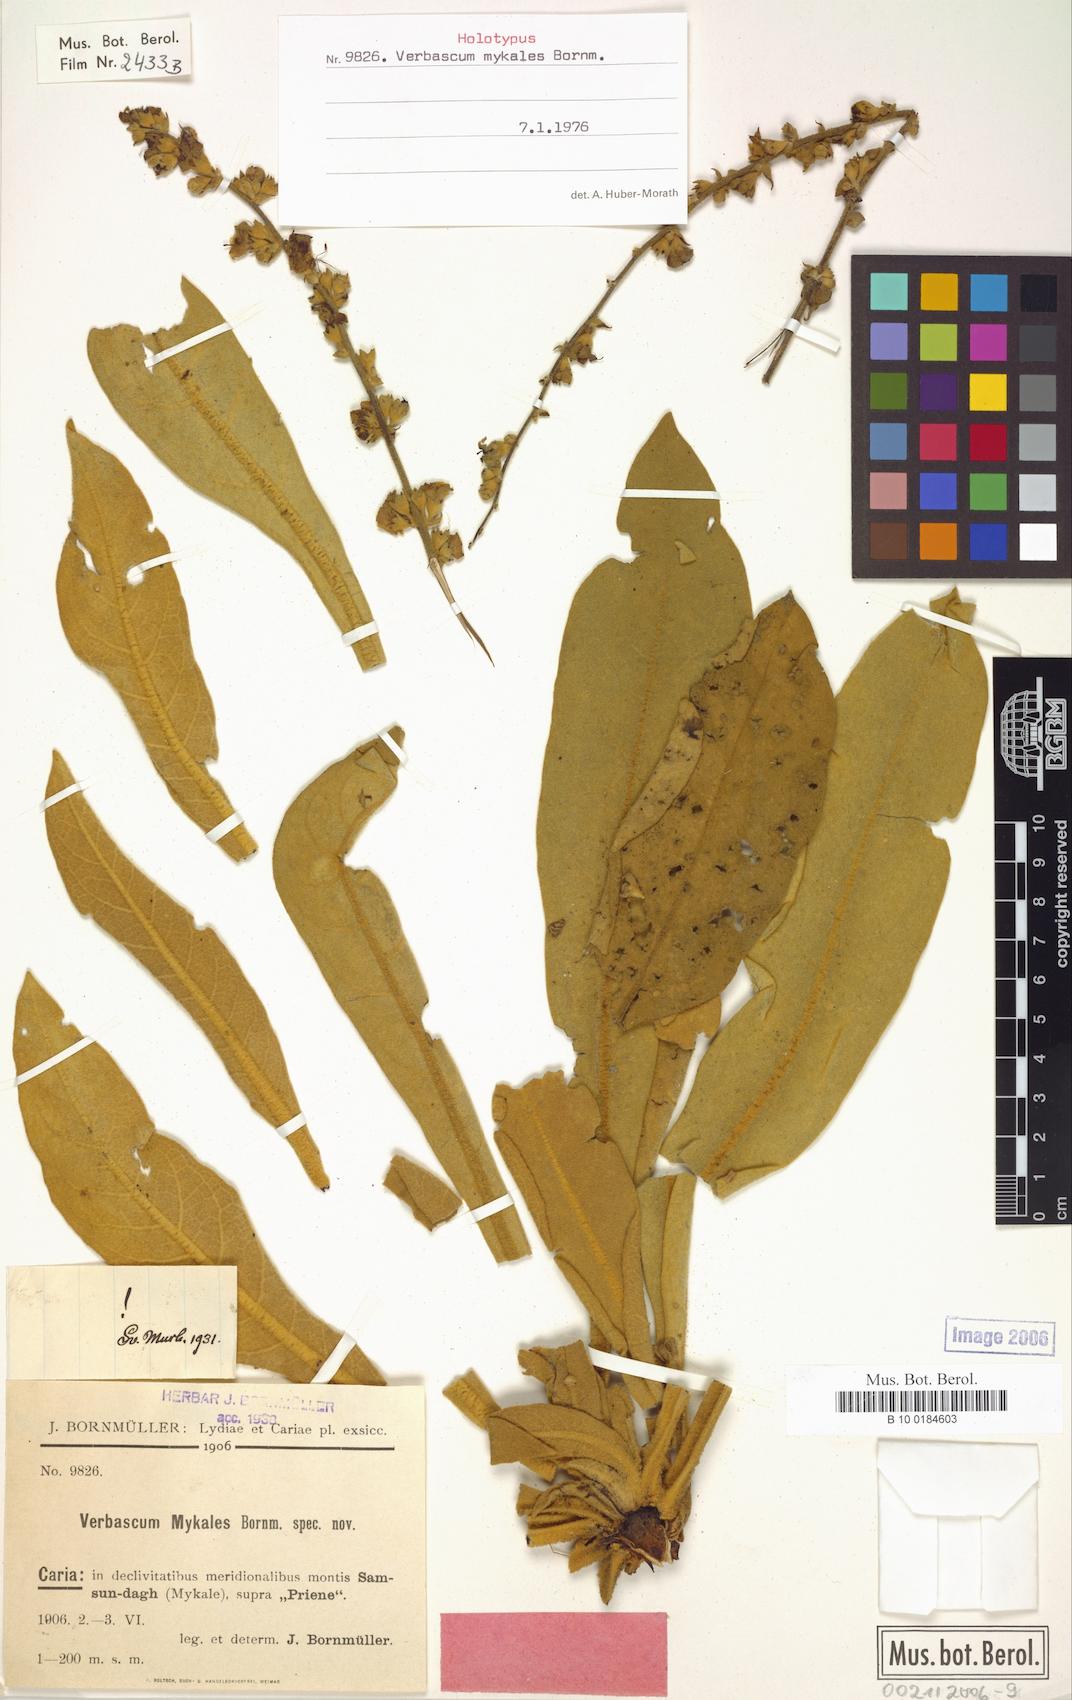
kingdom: Plantae
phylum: Tracheophyta
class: Magnoliopsida
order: Lamiales
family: Scrophulariaceae
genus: Verbascum
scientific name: Verbascum mykales
